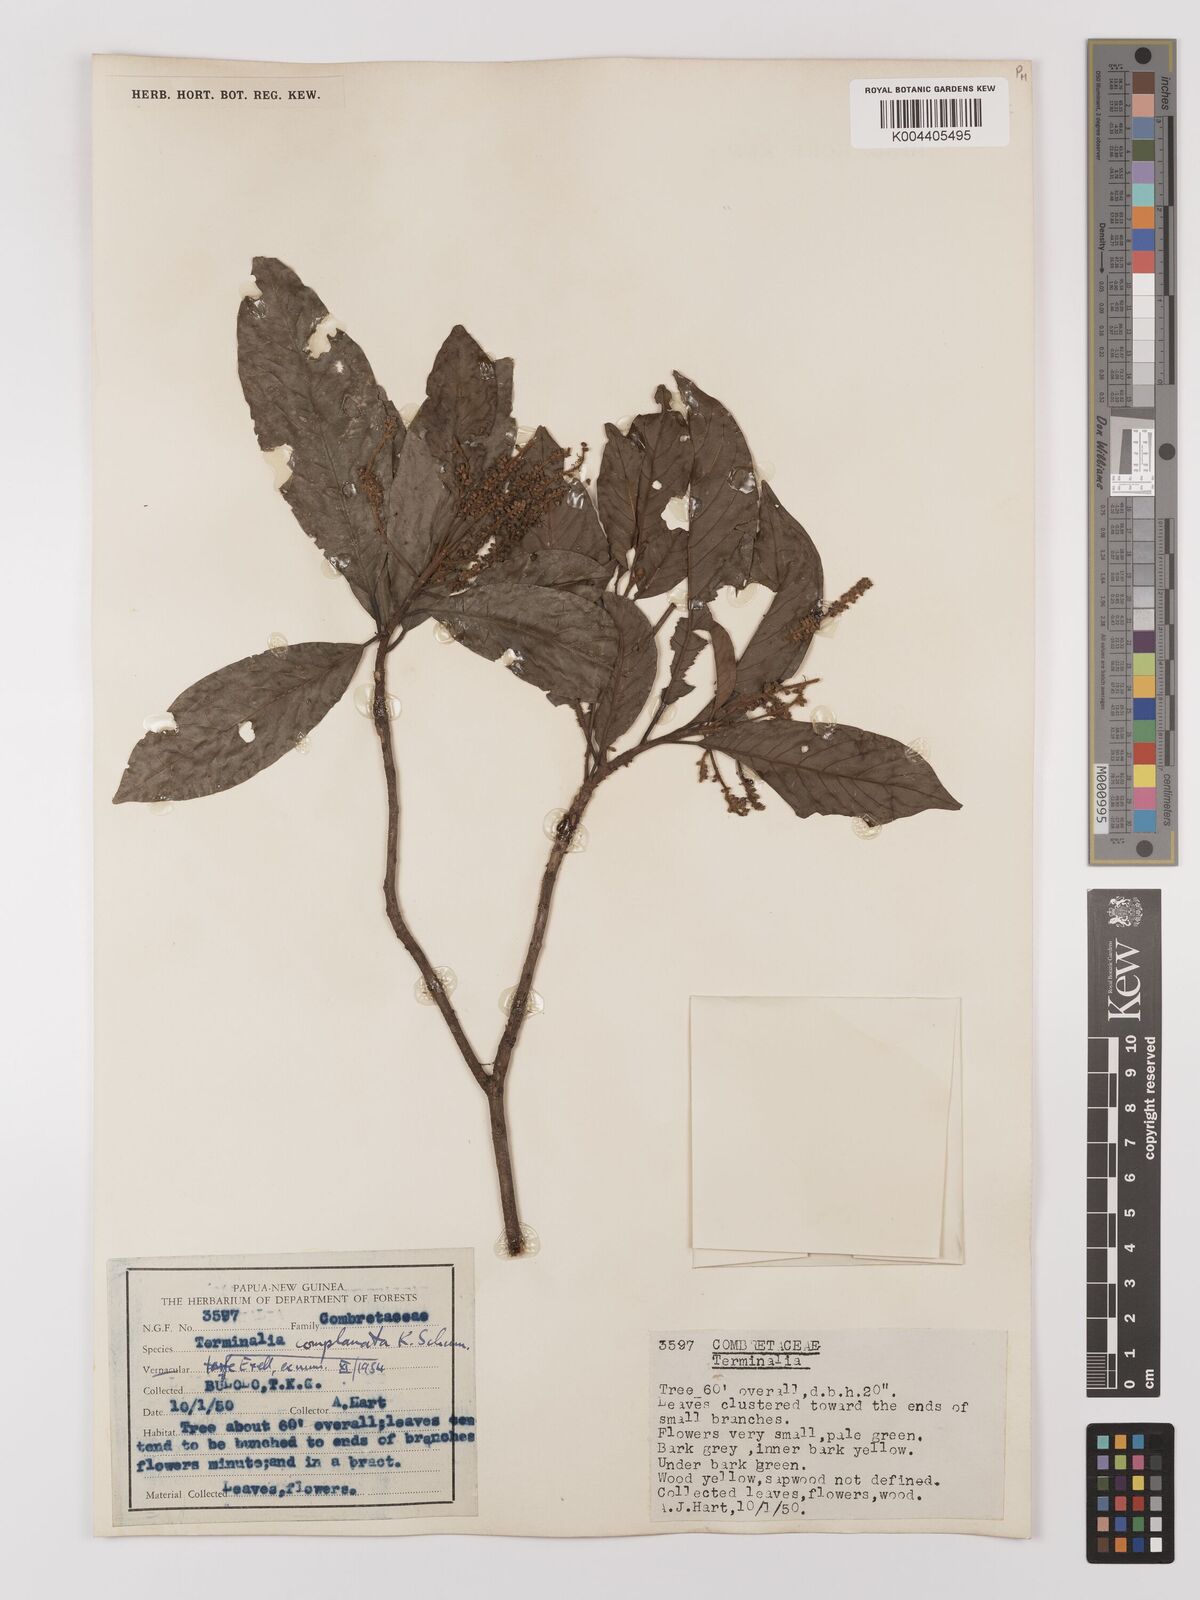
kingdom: Plantae
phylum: Tracheophyta
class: Magnoliopsida
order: Myrtales
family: Combretaceae
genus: Terminalia
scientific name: Terminalia complanata
